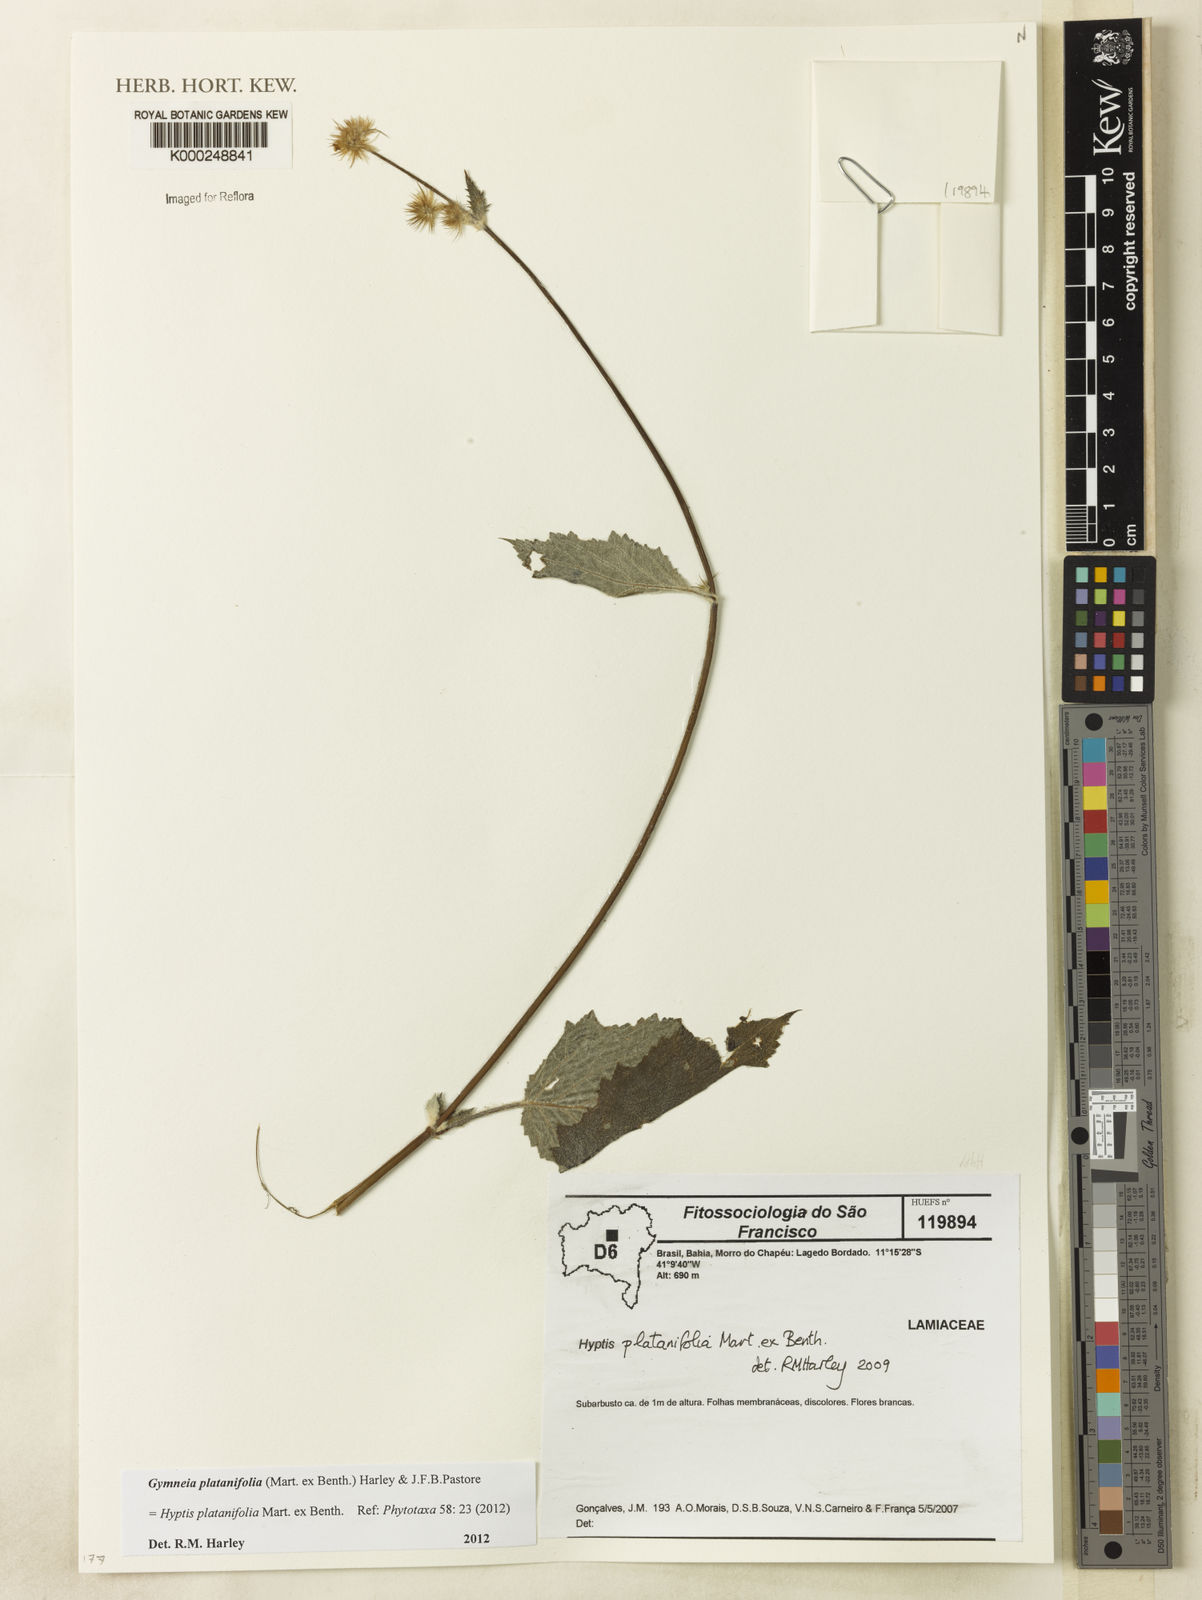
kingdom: Plantae
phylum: Tracheophyta
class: Magnoliopsida
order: Lamiales
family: Lamiaceae
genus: Gymneia
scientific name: Gymneia platanifolia
